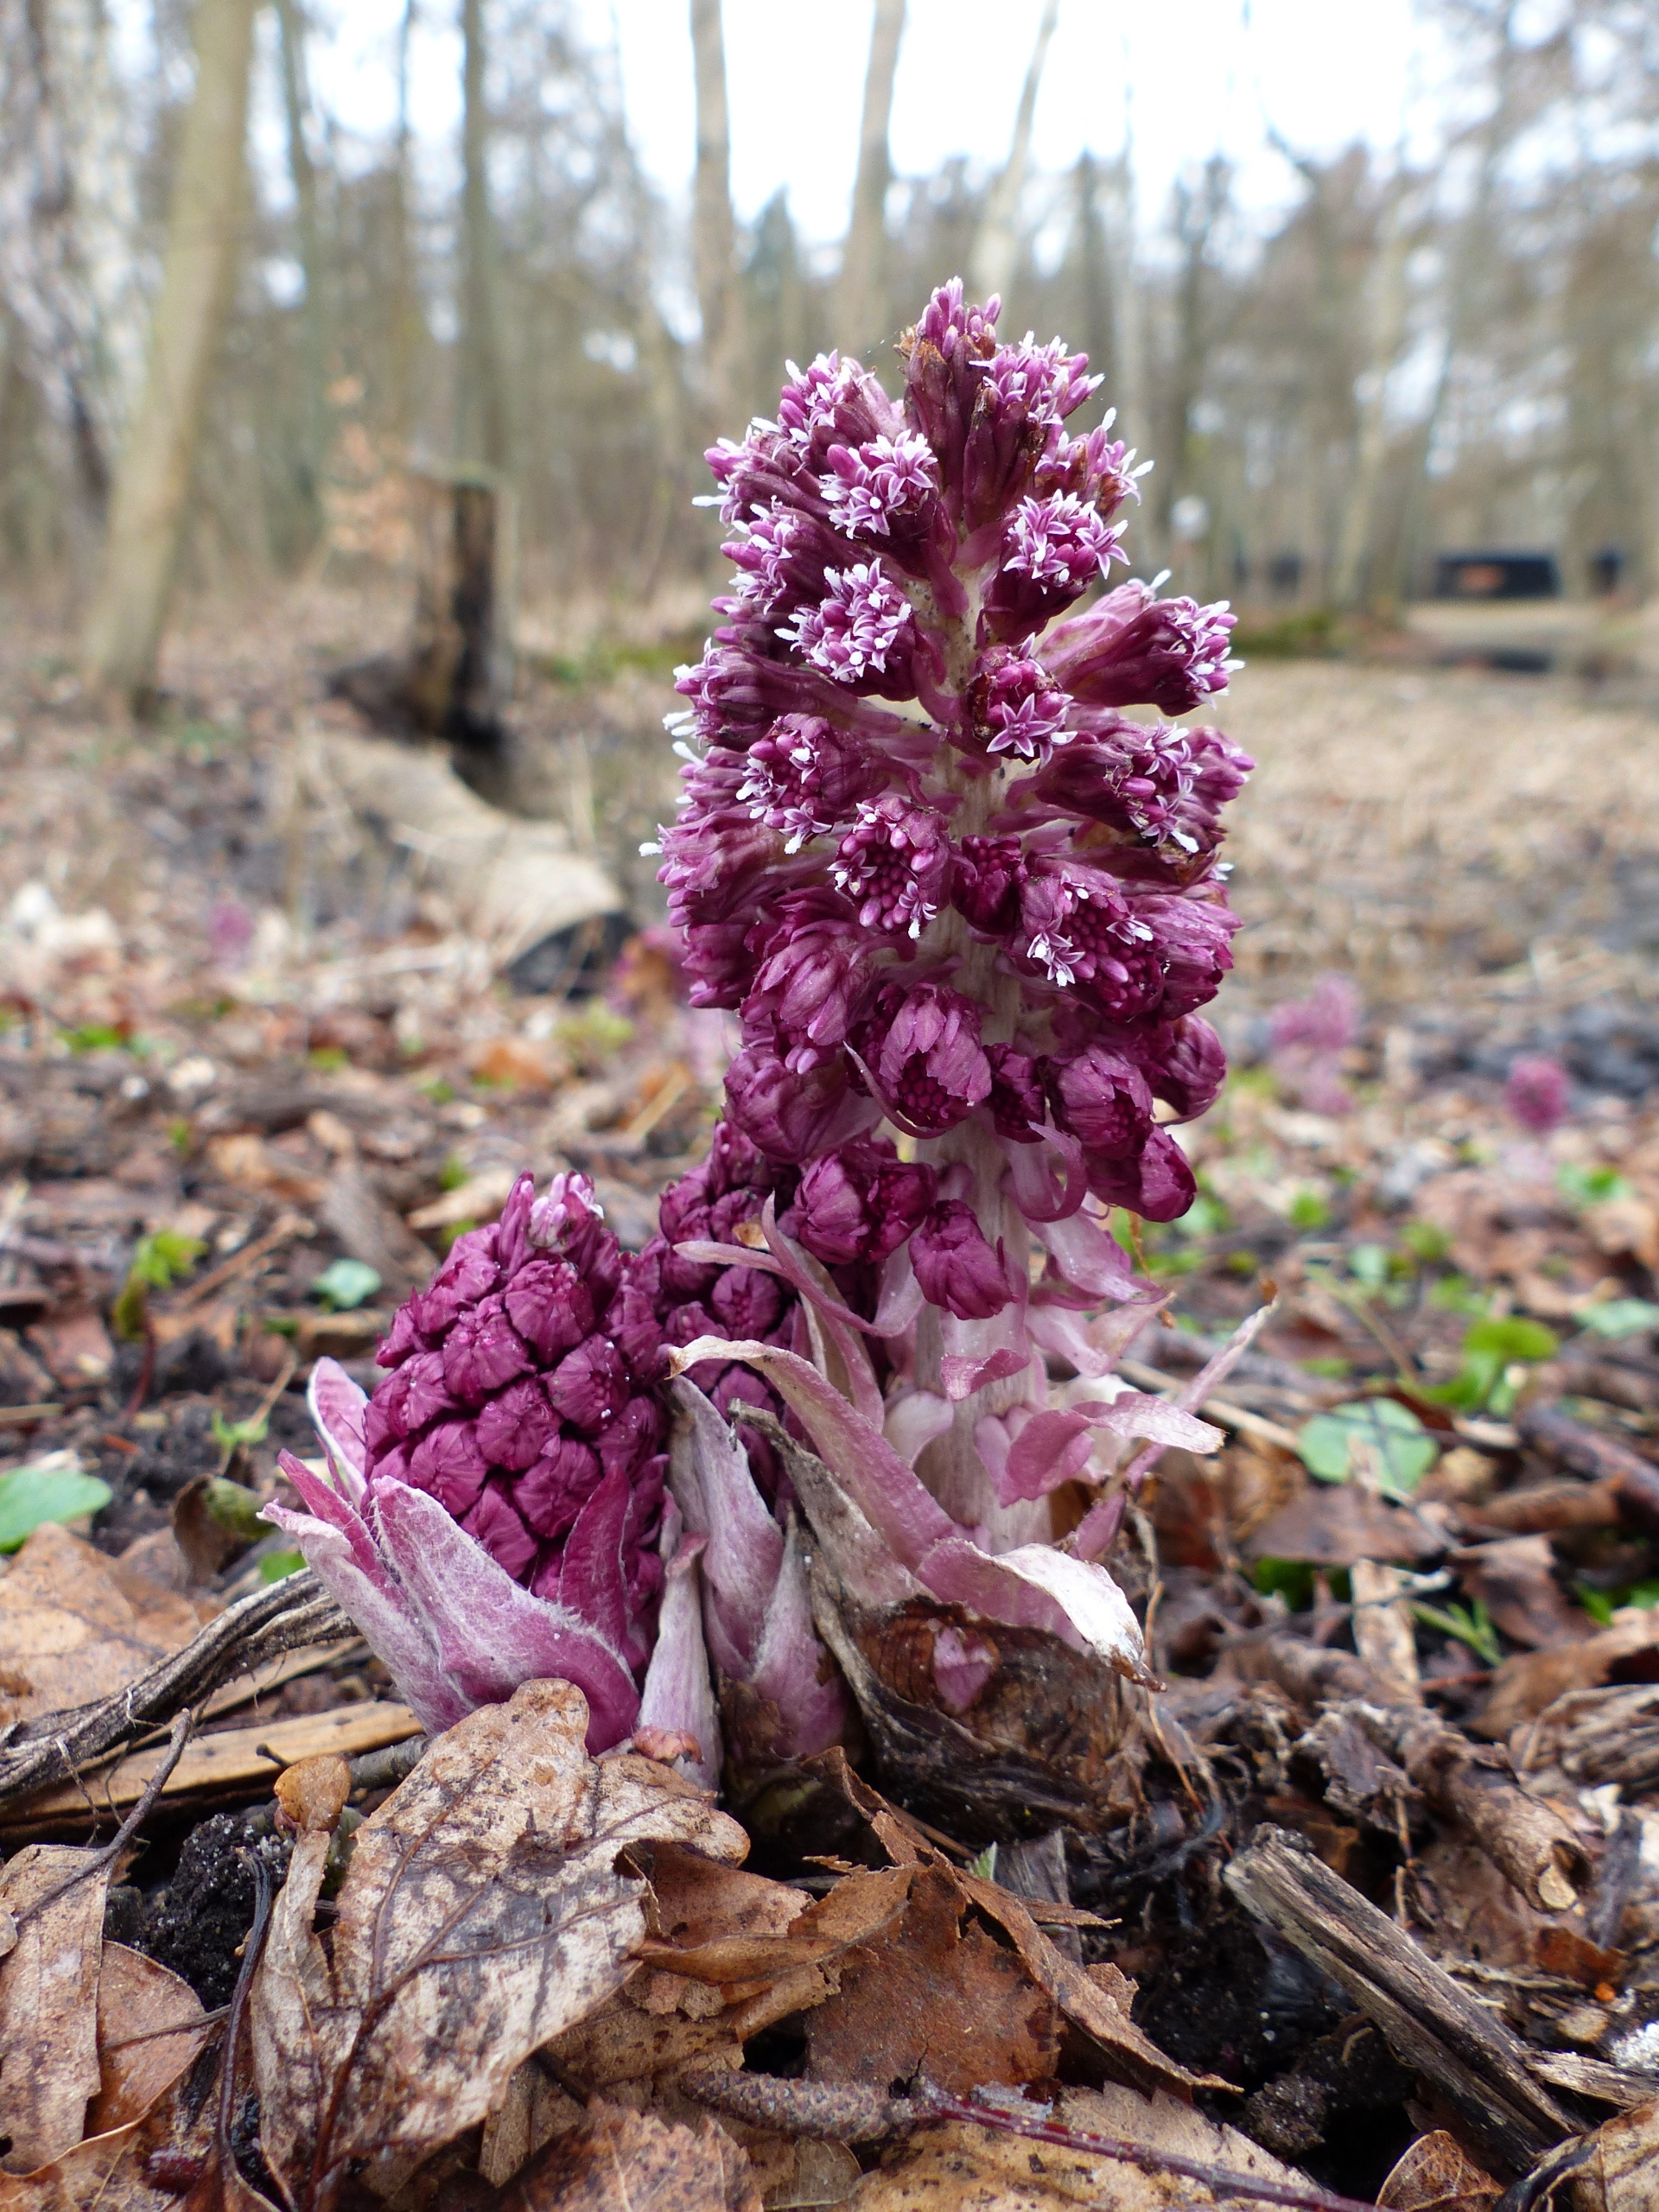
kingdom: Plantae
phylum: Tracheophyta
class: Magnoliopsida
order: Asterales
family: Asteraceae
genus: Petasites
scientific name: Petasites hybridus
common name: Rød hestehov
